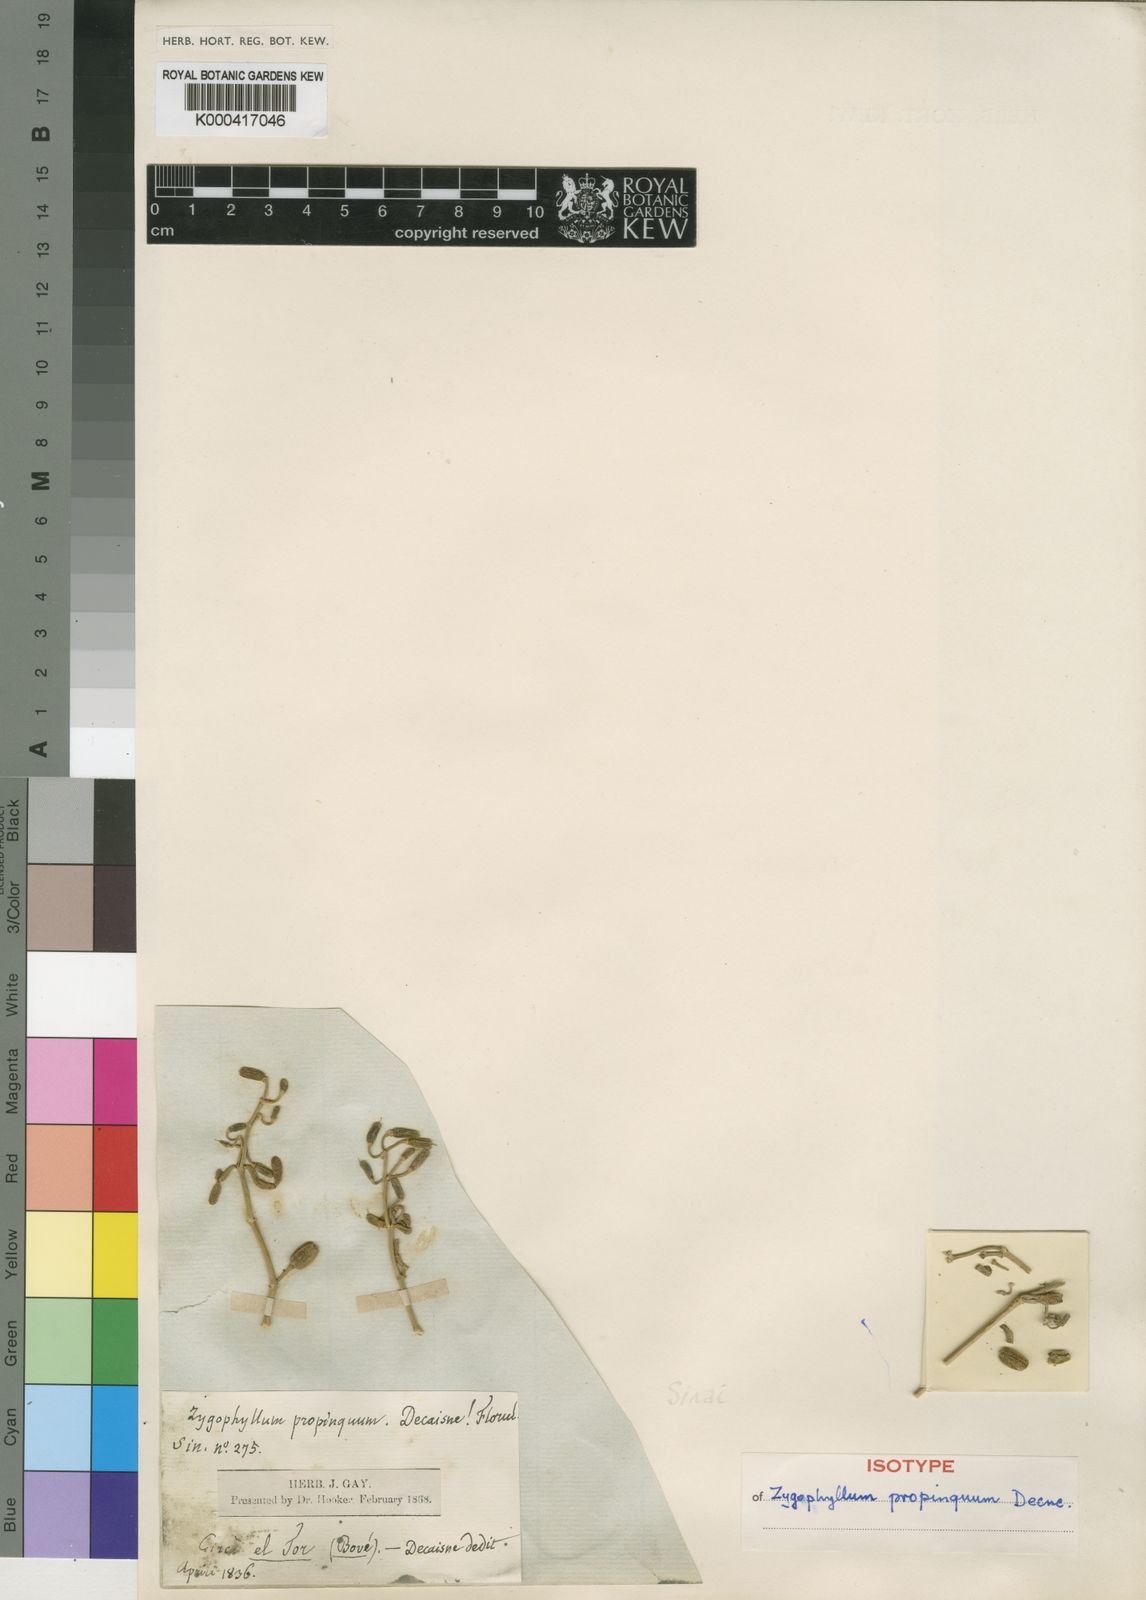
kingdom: Plantae
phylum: Tracheophyta
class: Magnoliopsida
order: Zygophyllales
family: Zygophyllaceae
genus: Tetraena
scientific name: Tetraena
